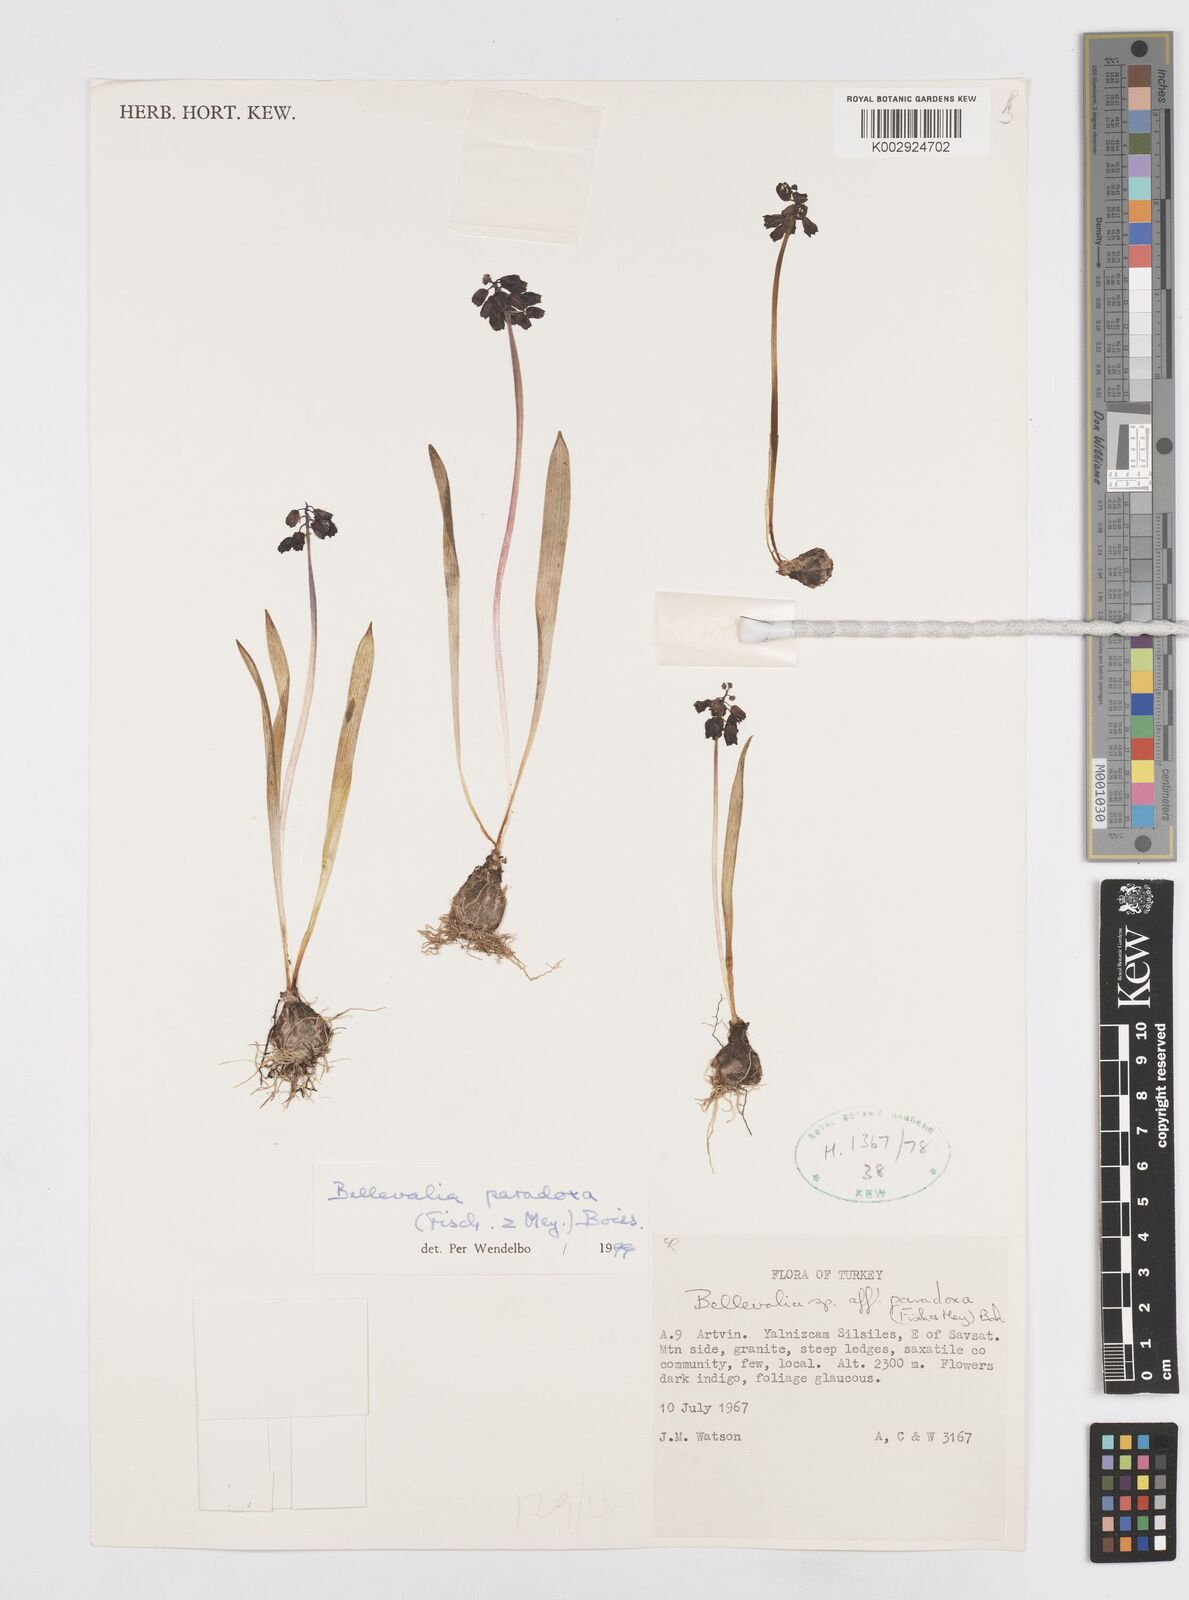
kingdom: Plantae
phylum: Tracheophyta
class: Liliopsida
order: Asparagales
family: Asparagaceae
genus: Bellevalia
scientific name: Bellevalia paradoxa
